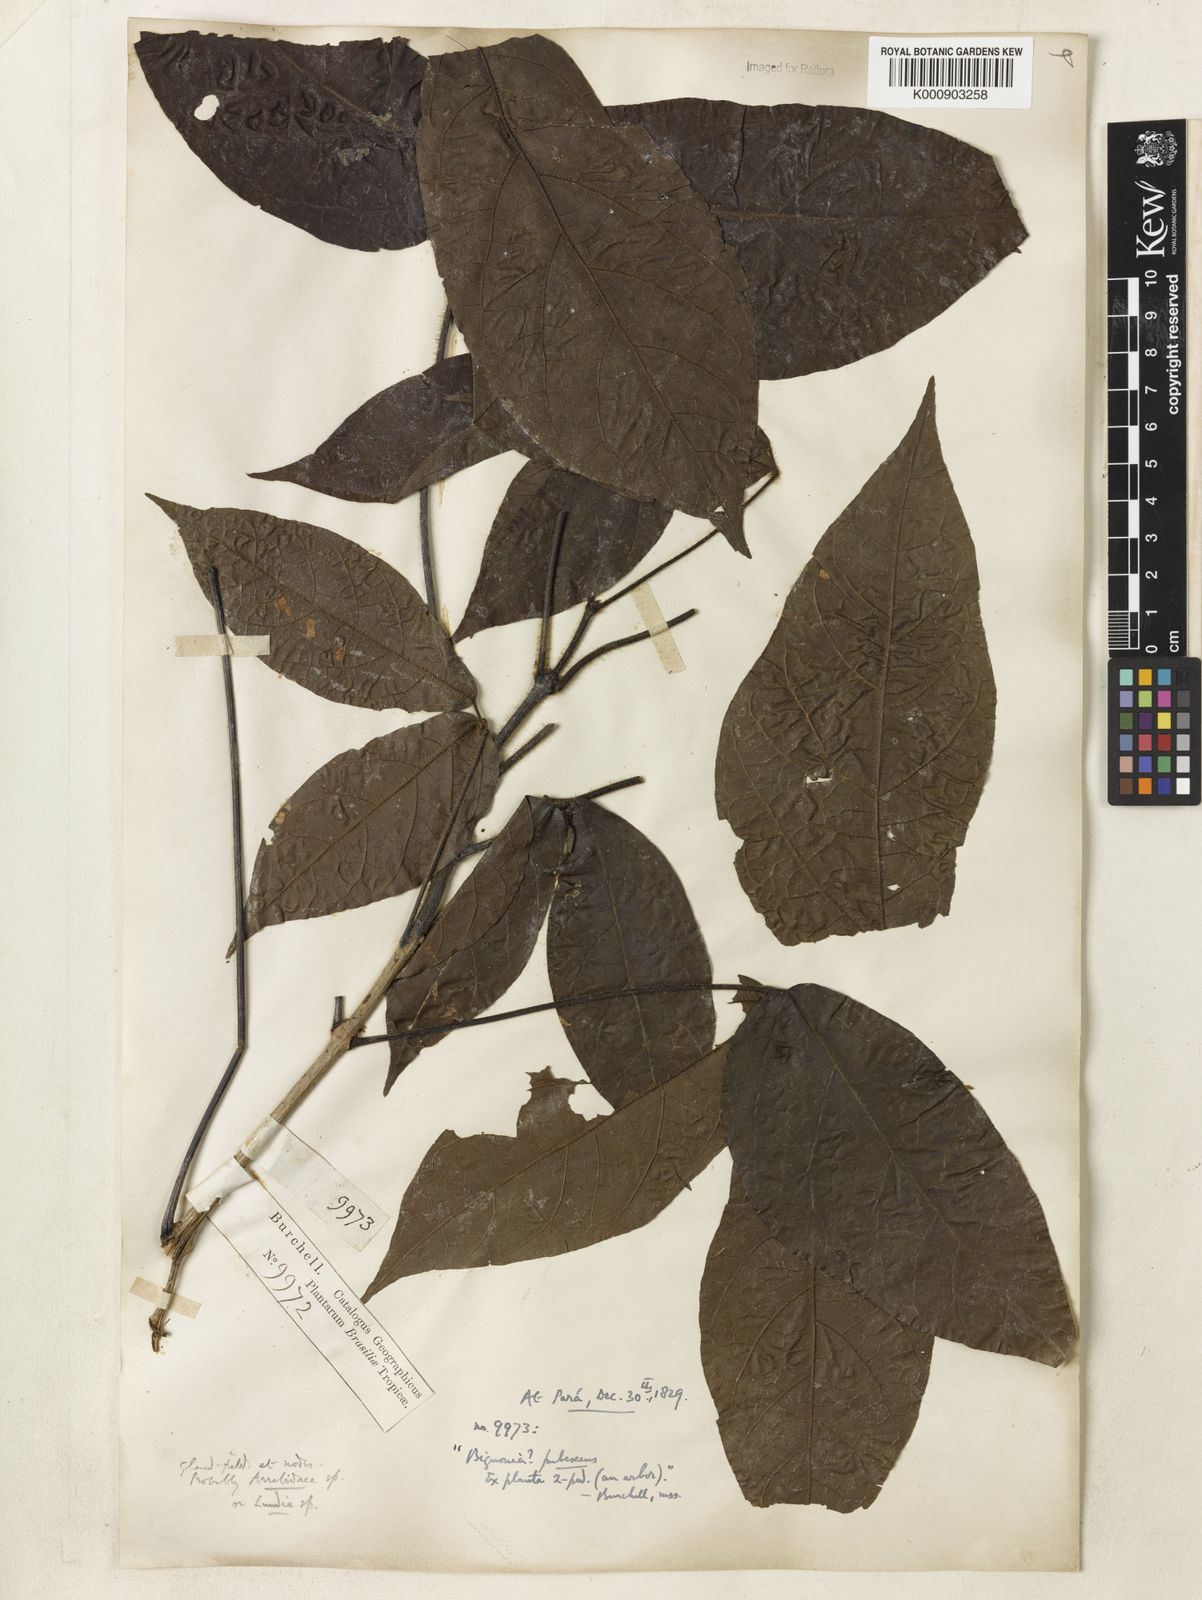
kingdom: Plantae
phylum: Tracheophyta
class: Magnoliopsida
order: Lamiales
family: Bignoniaceae
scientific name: Bignoniaceae
